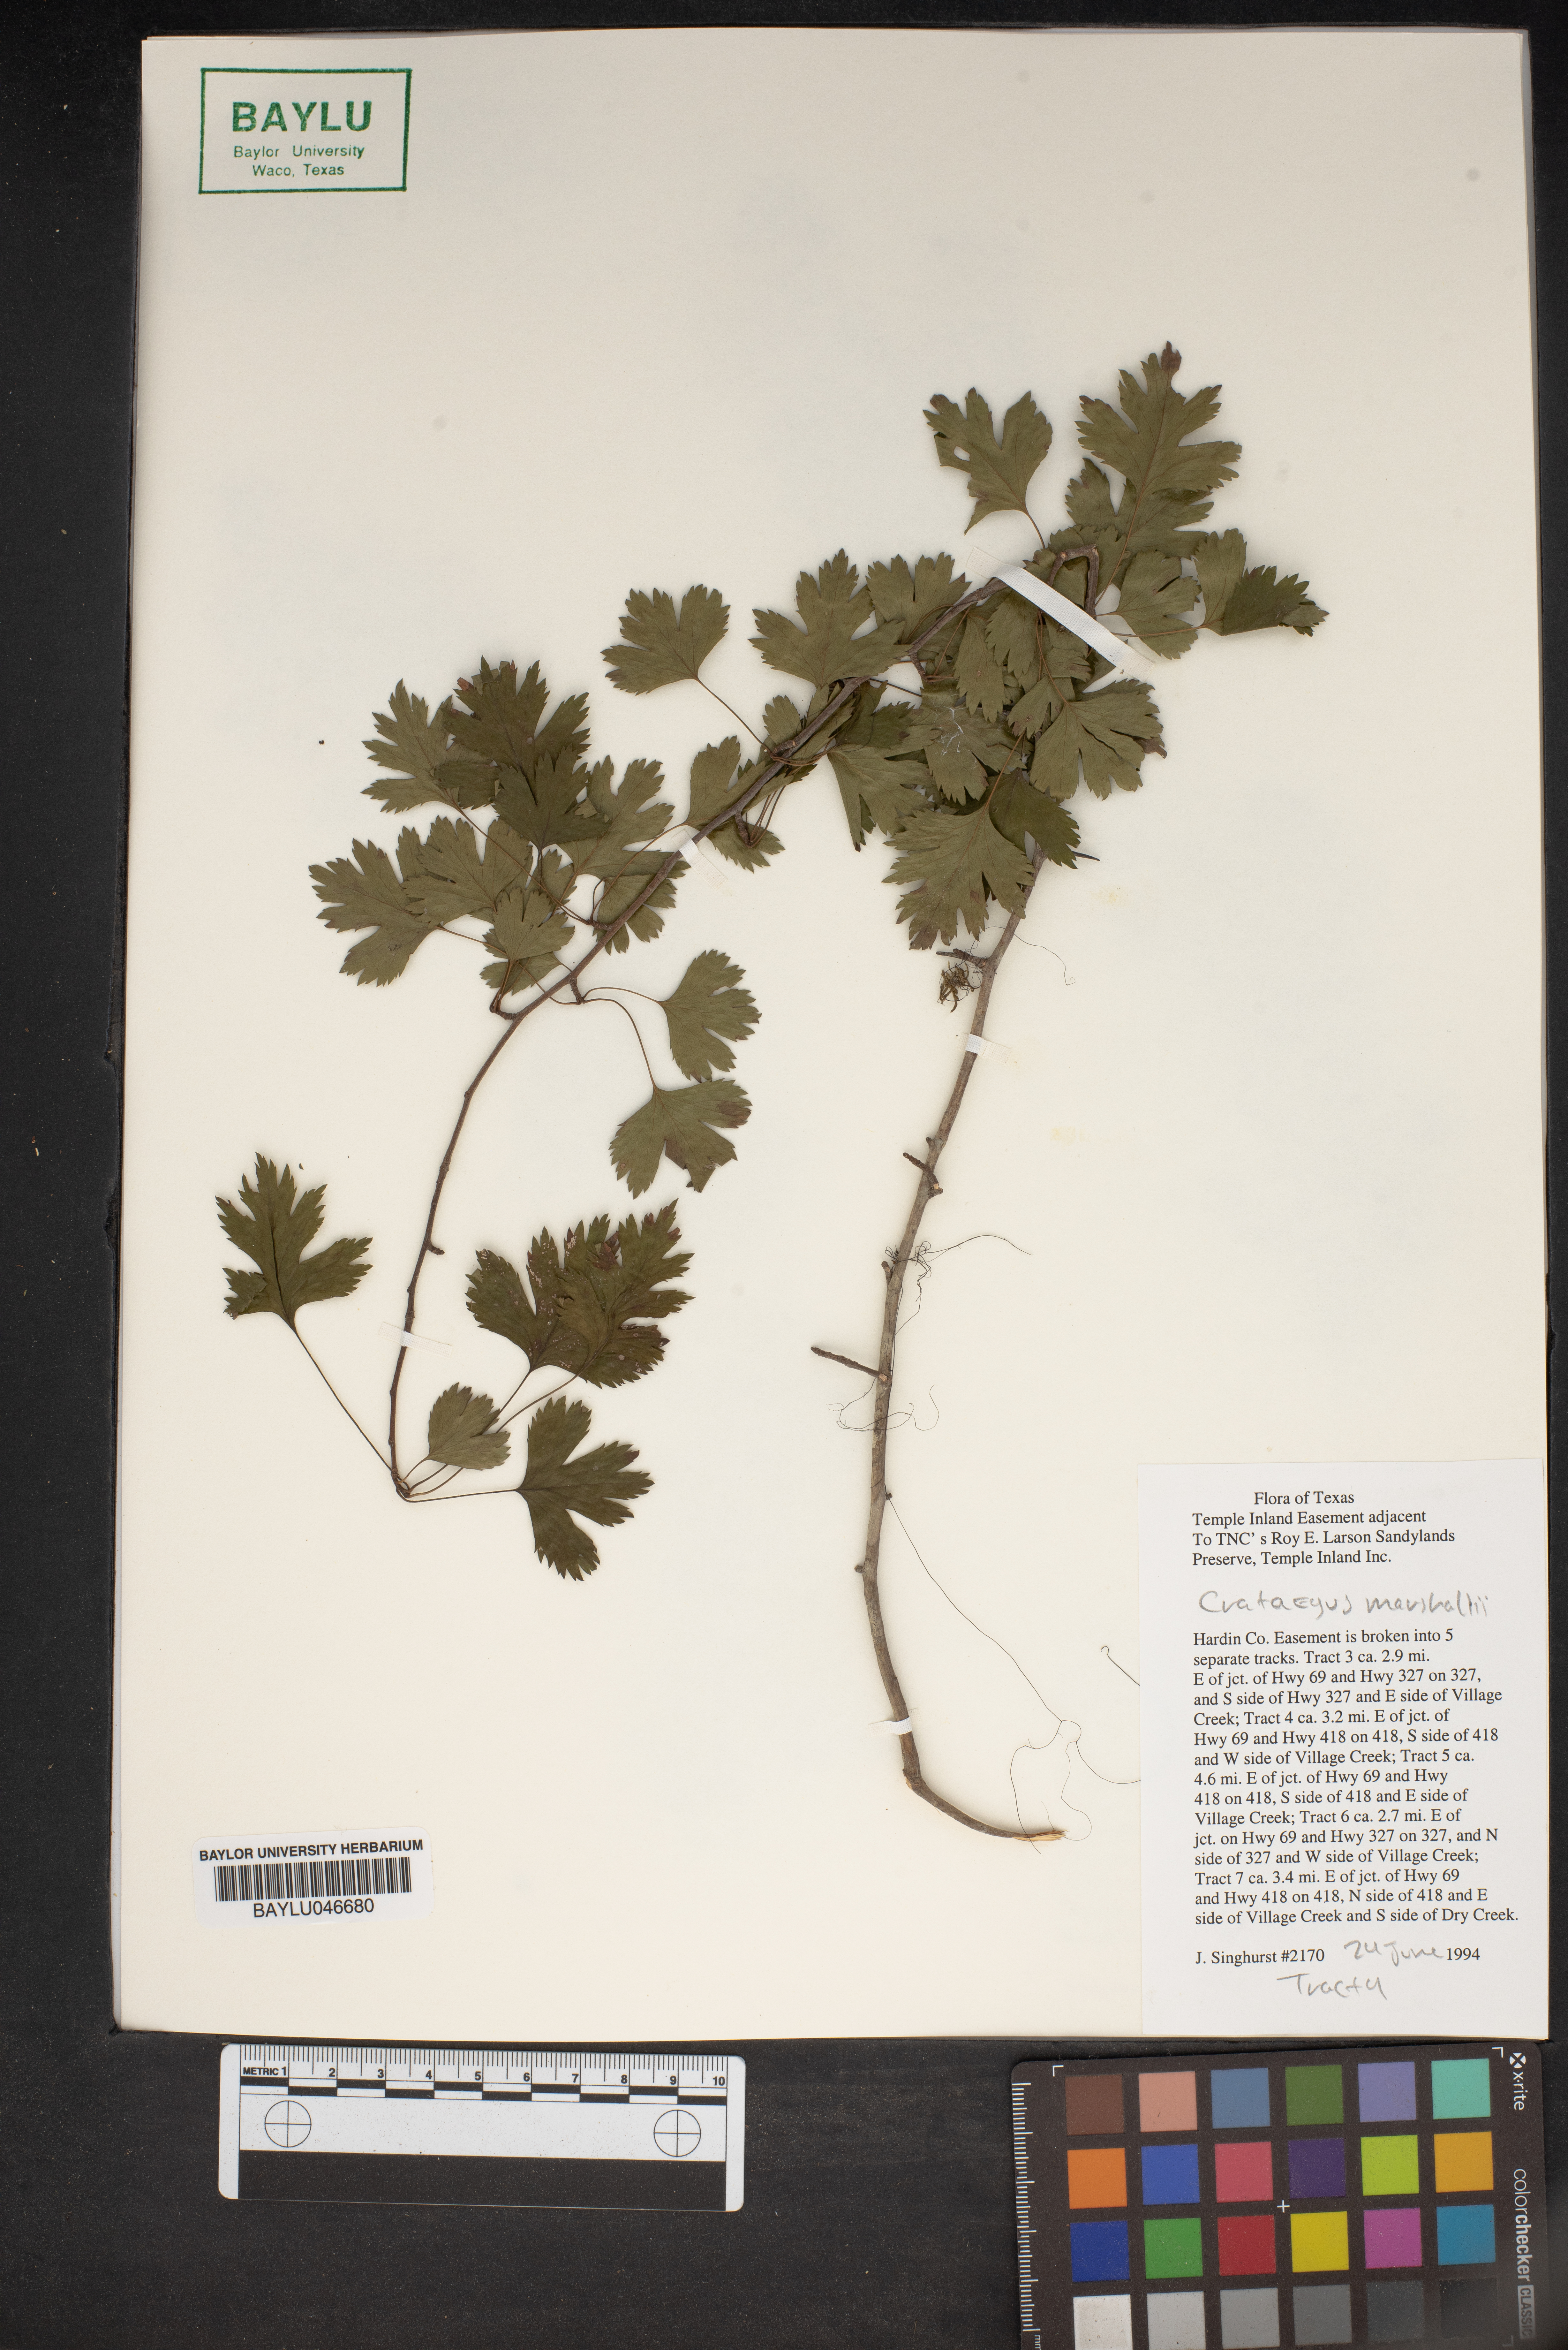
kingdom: Plantae
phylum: Tracheophyta
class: Magnoliopsida
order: Rosales
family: Rosaceae
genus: Crataegus
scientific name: Crataegus marshallii
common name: Parsley-hawthorn
